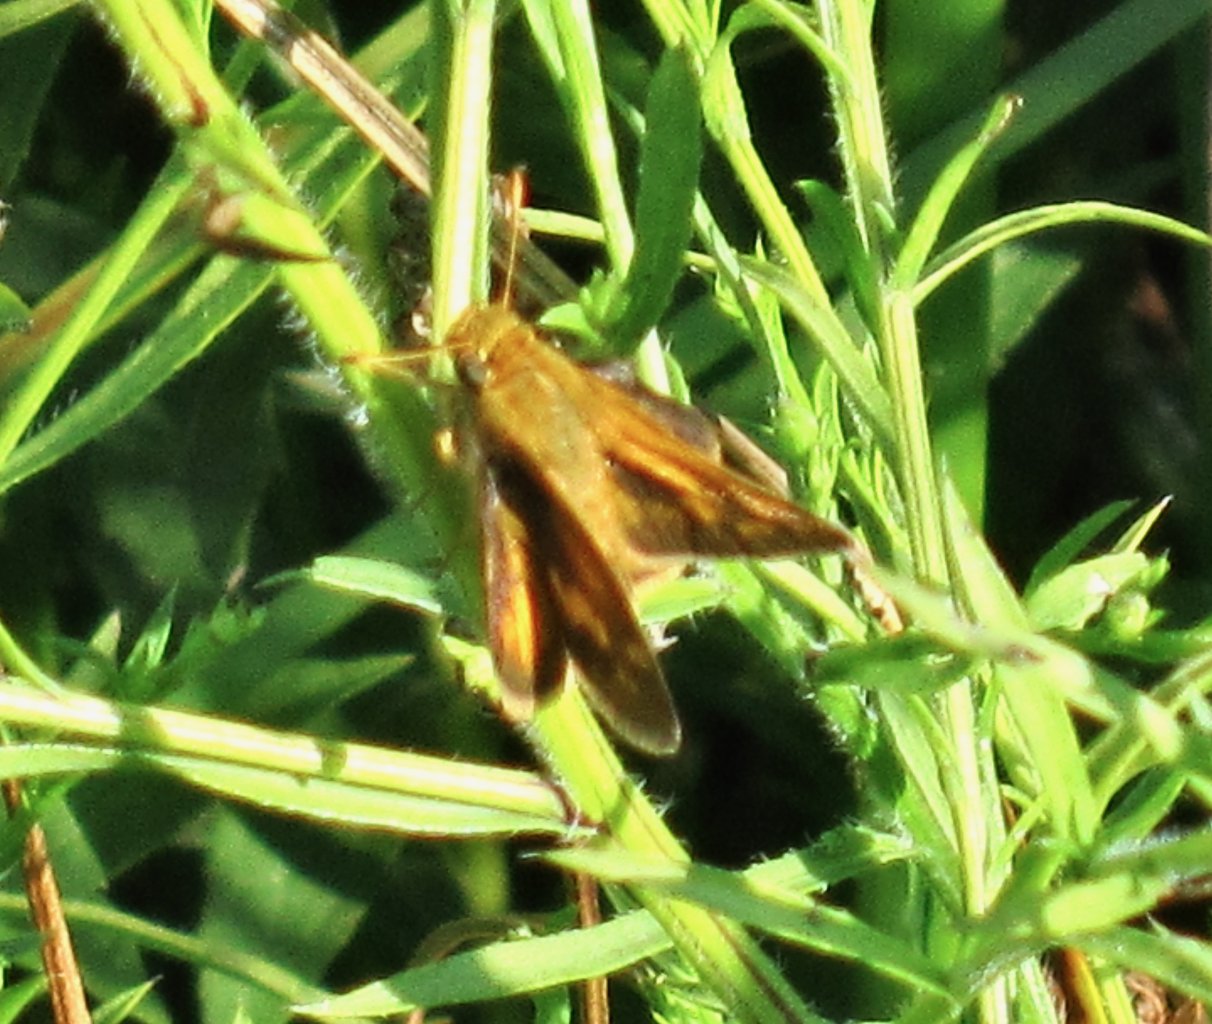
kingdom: Animalia
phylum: Arthropoda
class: Insecta
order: Lepidoptera
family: Hesperiidae
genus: Polites
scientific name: Polites coras
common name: Peck's Skipper
